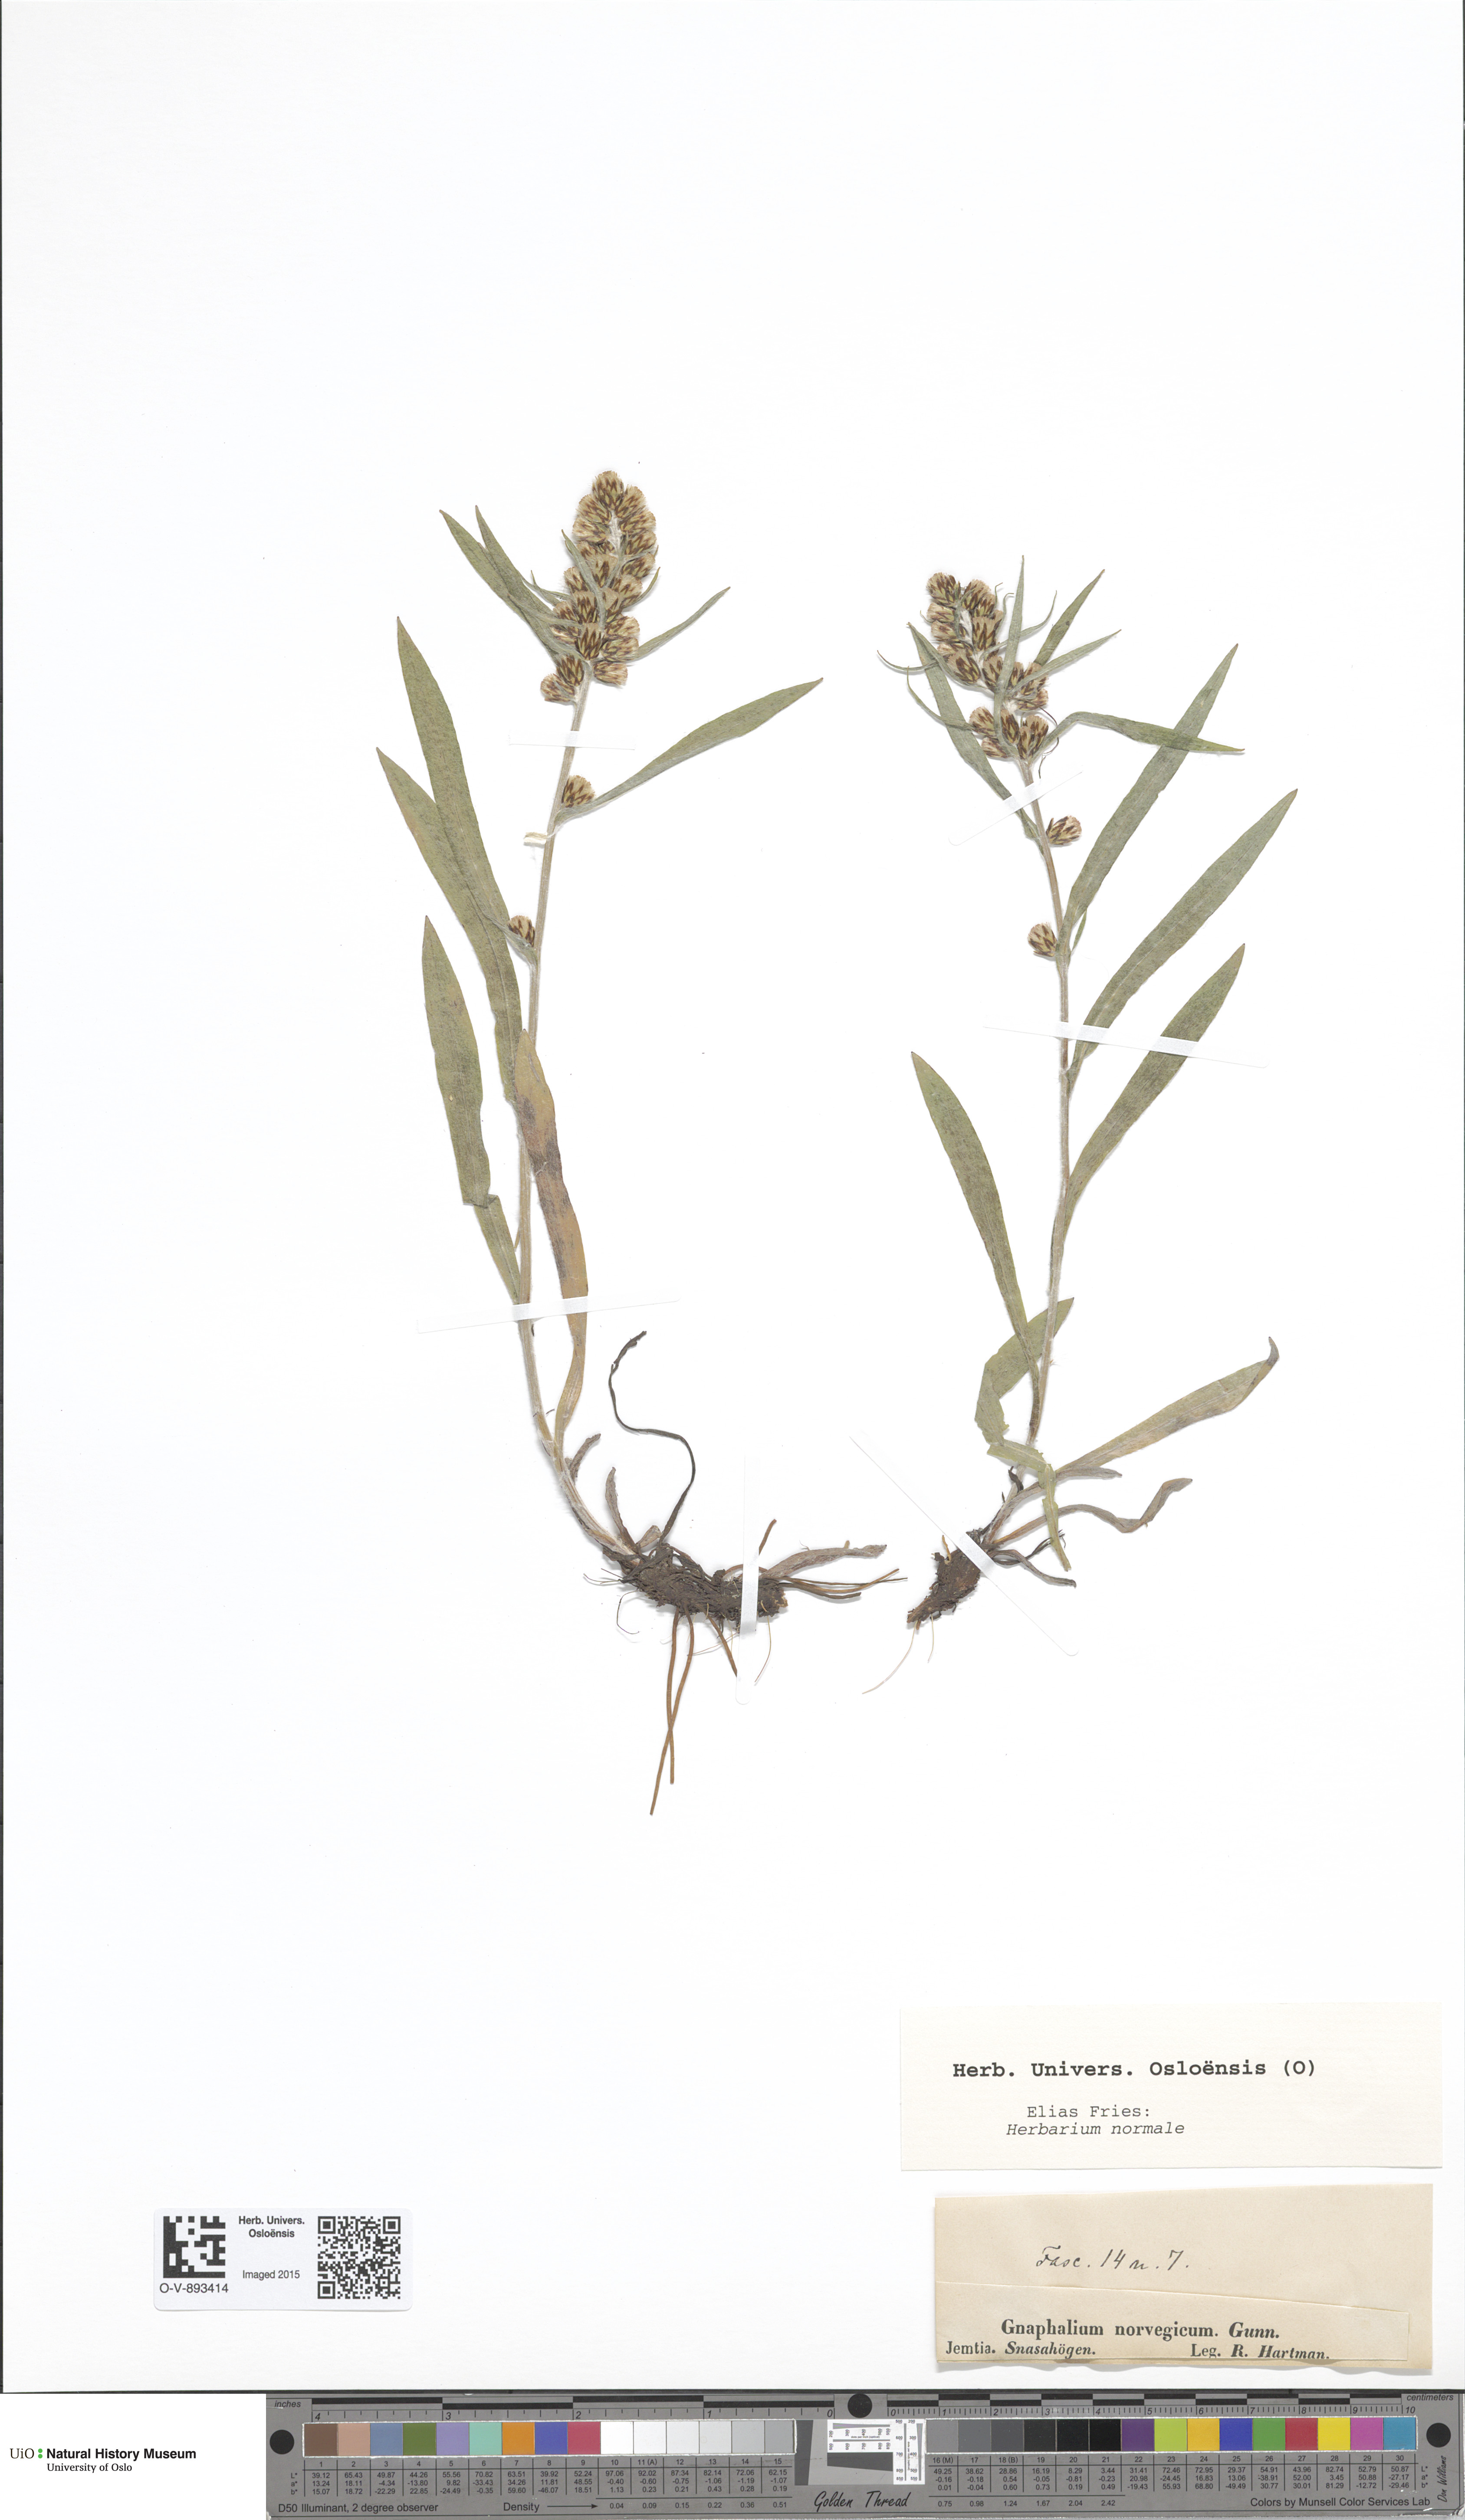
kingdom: Plantae
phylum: Tracheophyta
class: Magnoliopsida
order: Asterales
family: Asteraceae
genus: Omalotheca
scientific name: Omalotheca norvegica
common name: Norwegian arctic-cudweed
